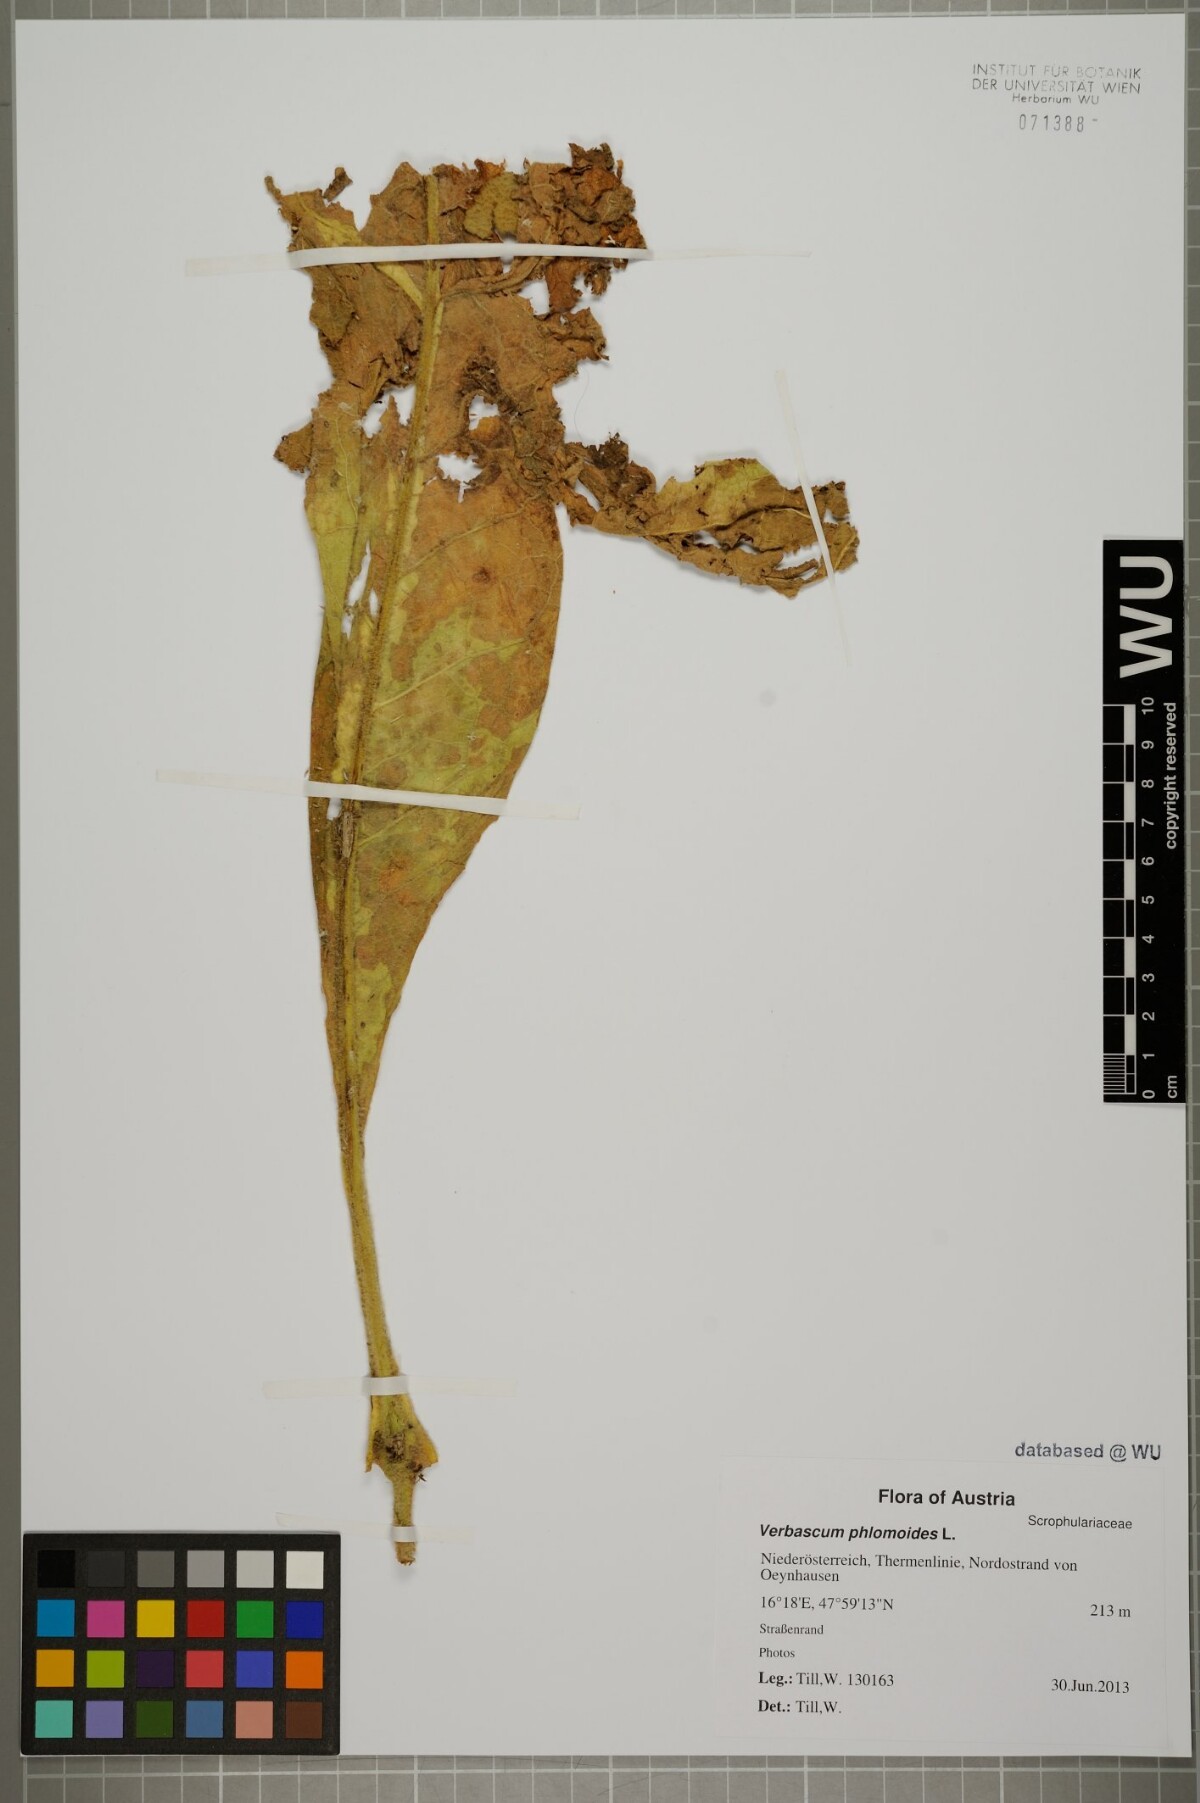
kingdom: Plantae
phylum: Tracheophyta
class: Magnoliopsida
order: Lamiales
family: Scrophulariaceae
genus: Verbascum
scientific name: Verbascum phlomoides
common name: Orange mullein
